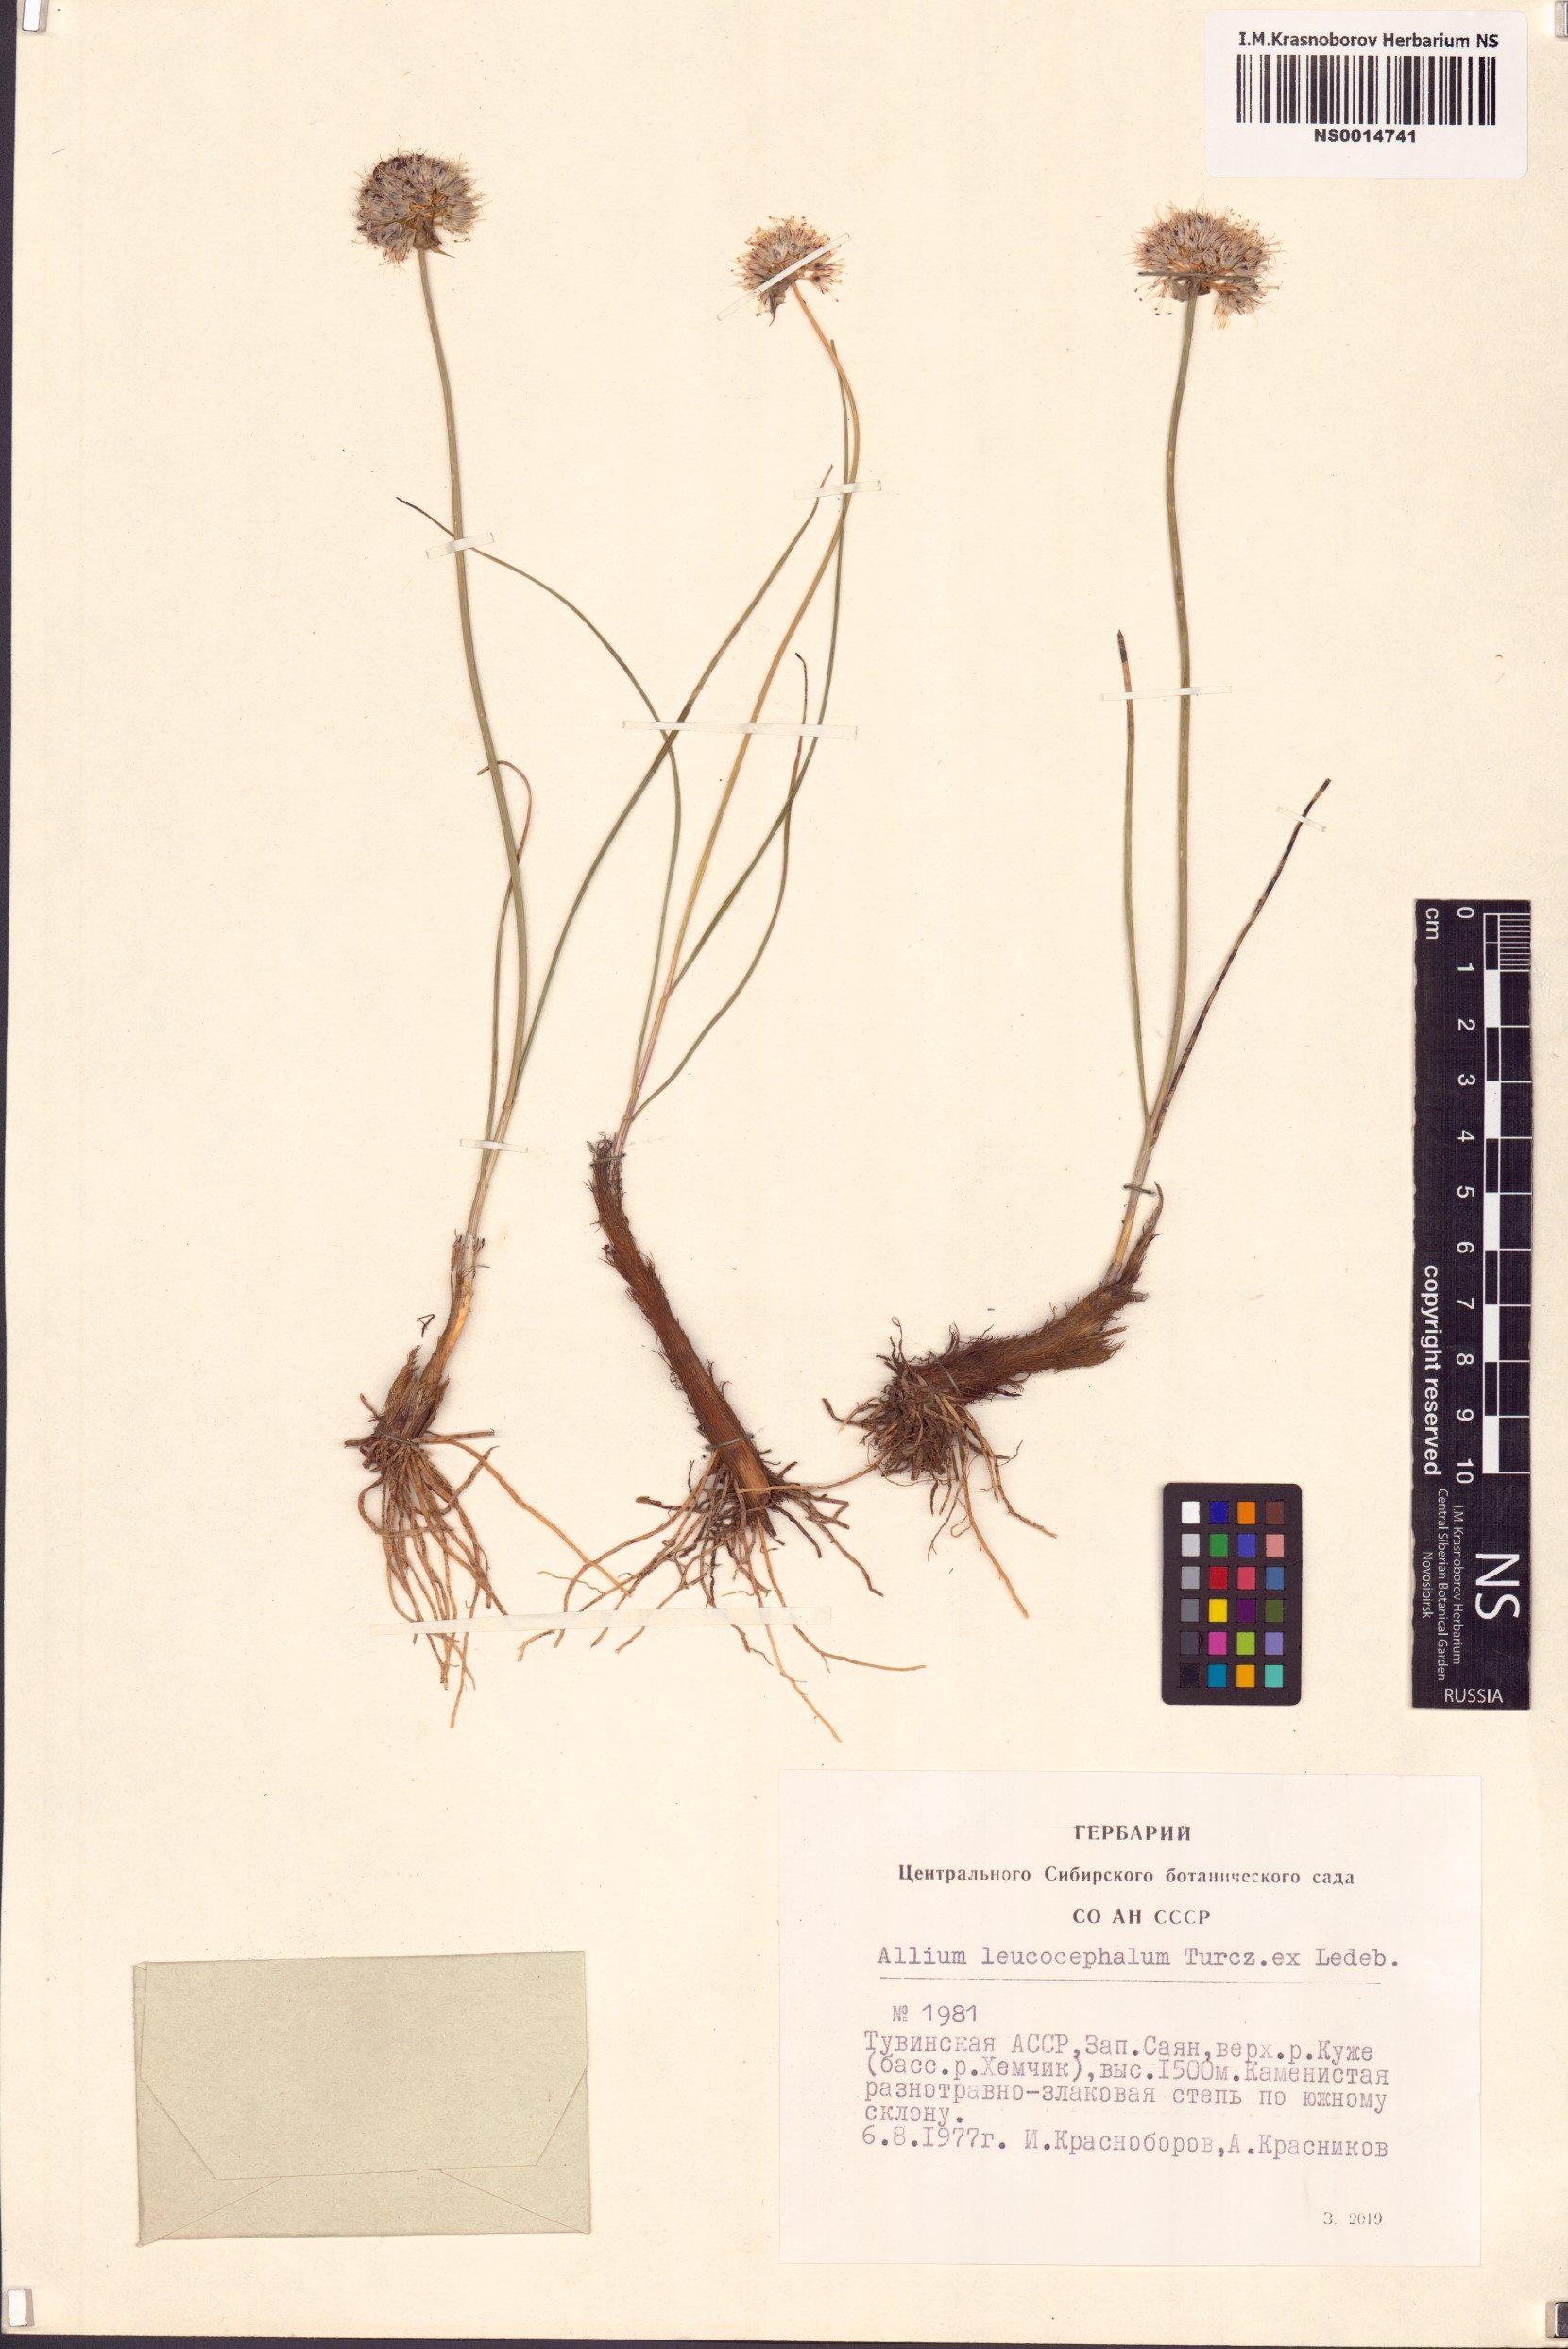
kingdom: Plantae
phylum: Tracheophyta
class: Liliopsida
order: Asparagales
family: Amaryllidaceae
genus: Allium
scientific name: Allium leucocephalum
